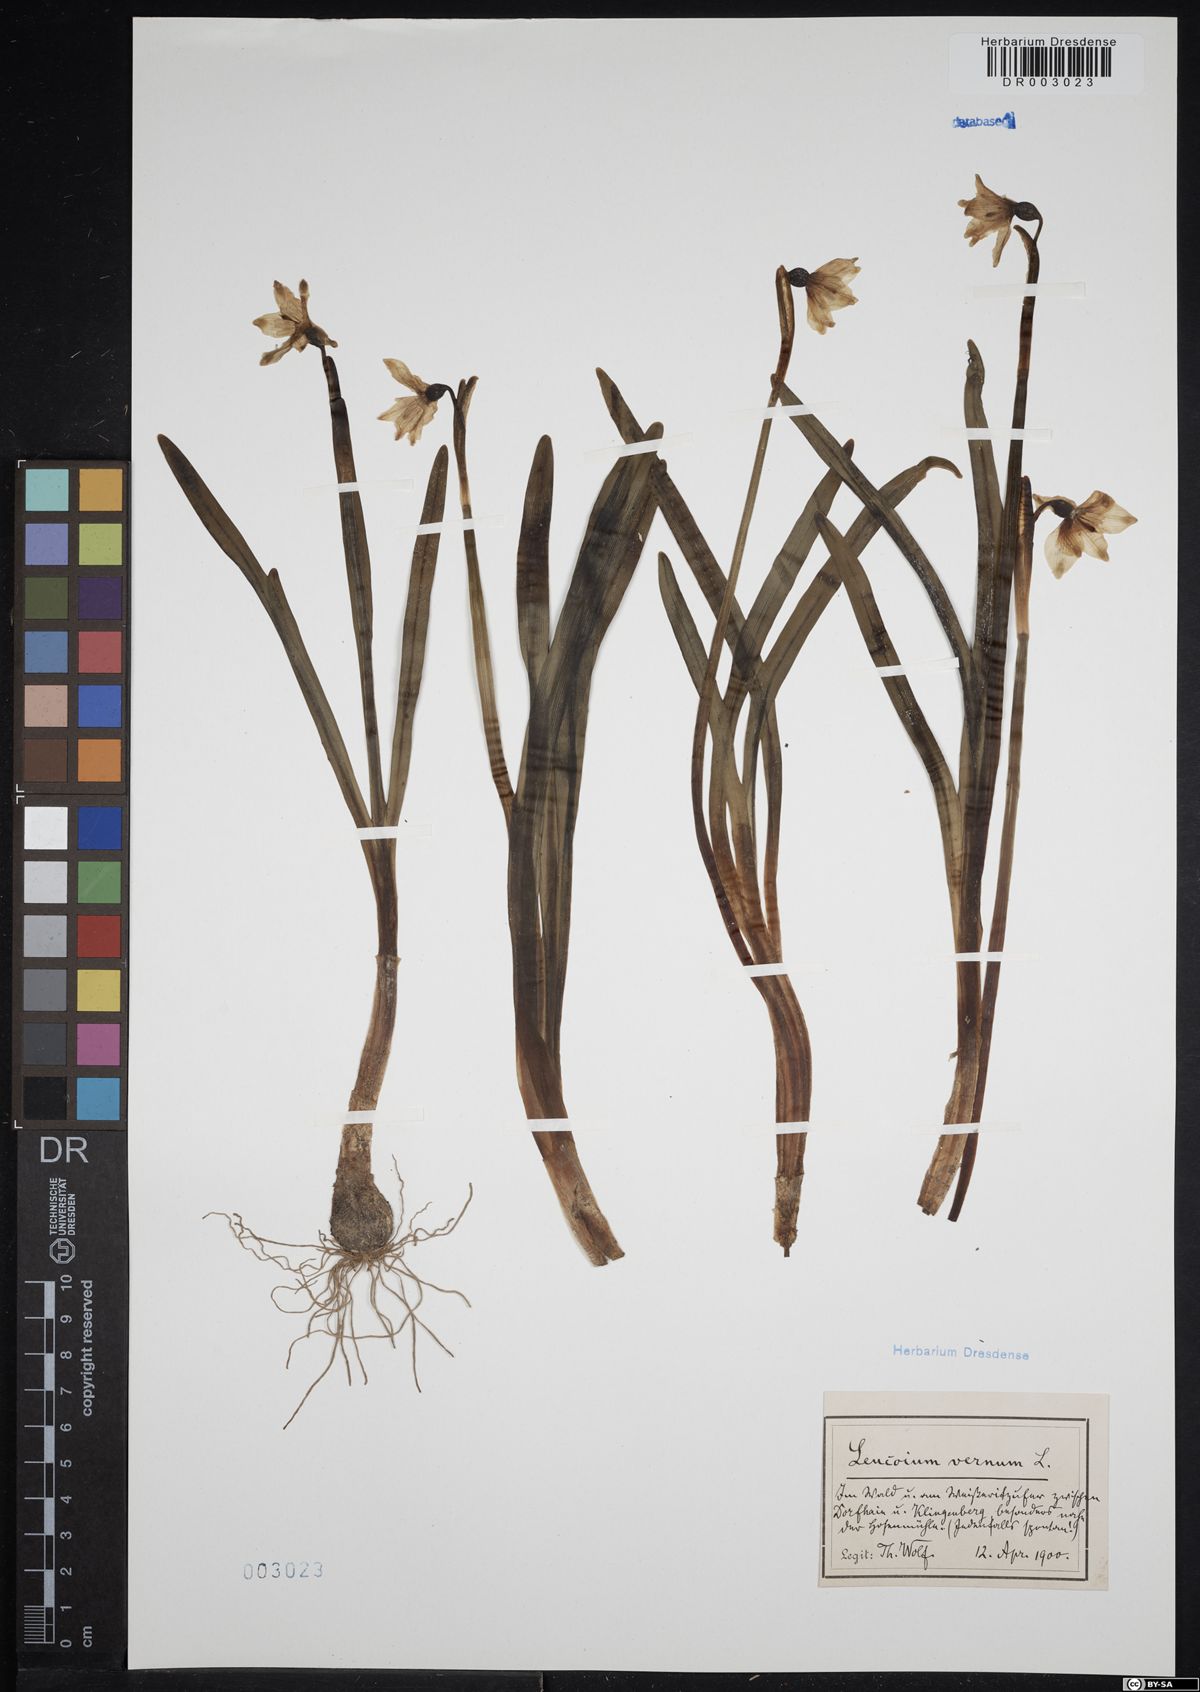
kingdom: Plantae
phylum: Tracheophyta
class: Liliopsida
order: Asparagales
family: Amaryllidaceae
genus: Leucojum
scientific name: Leucojum vernum
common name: Spring snowflake
